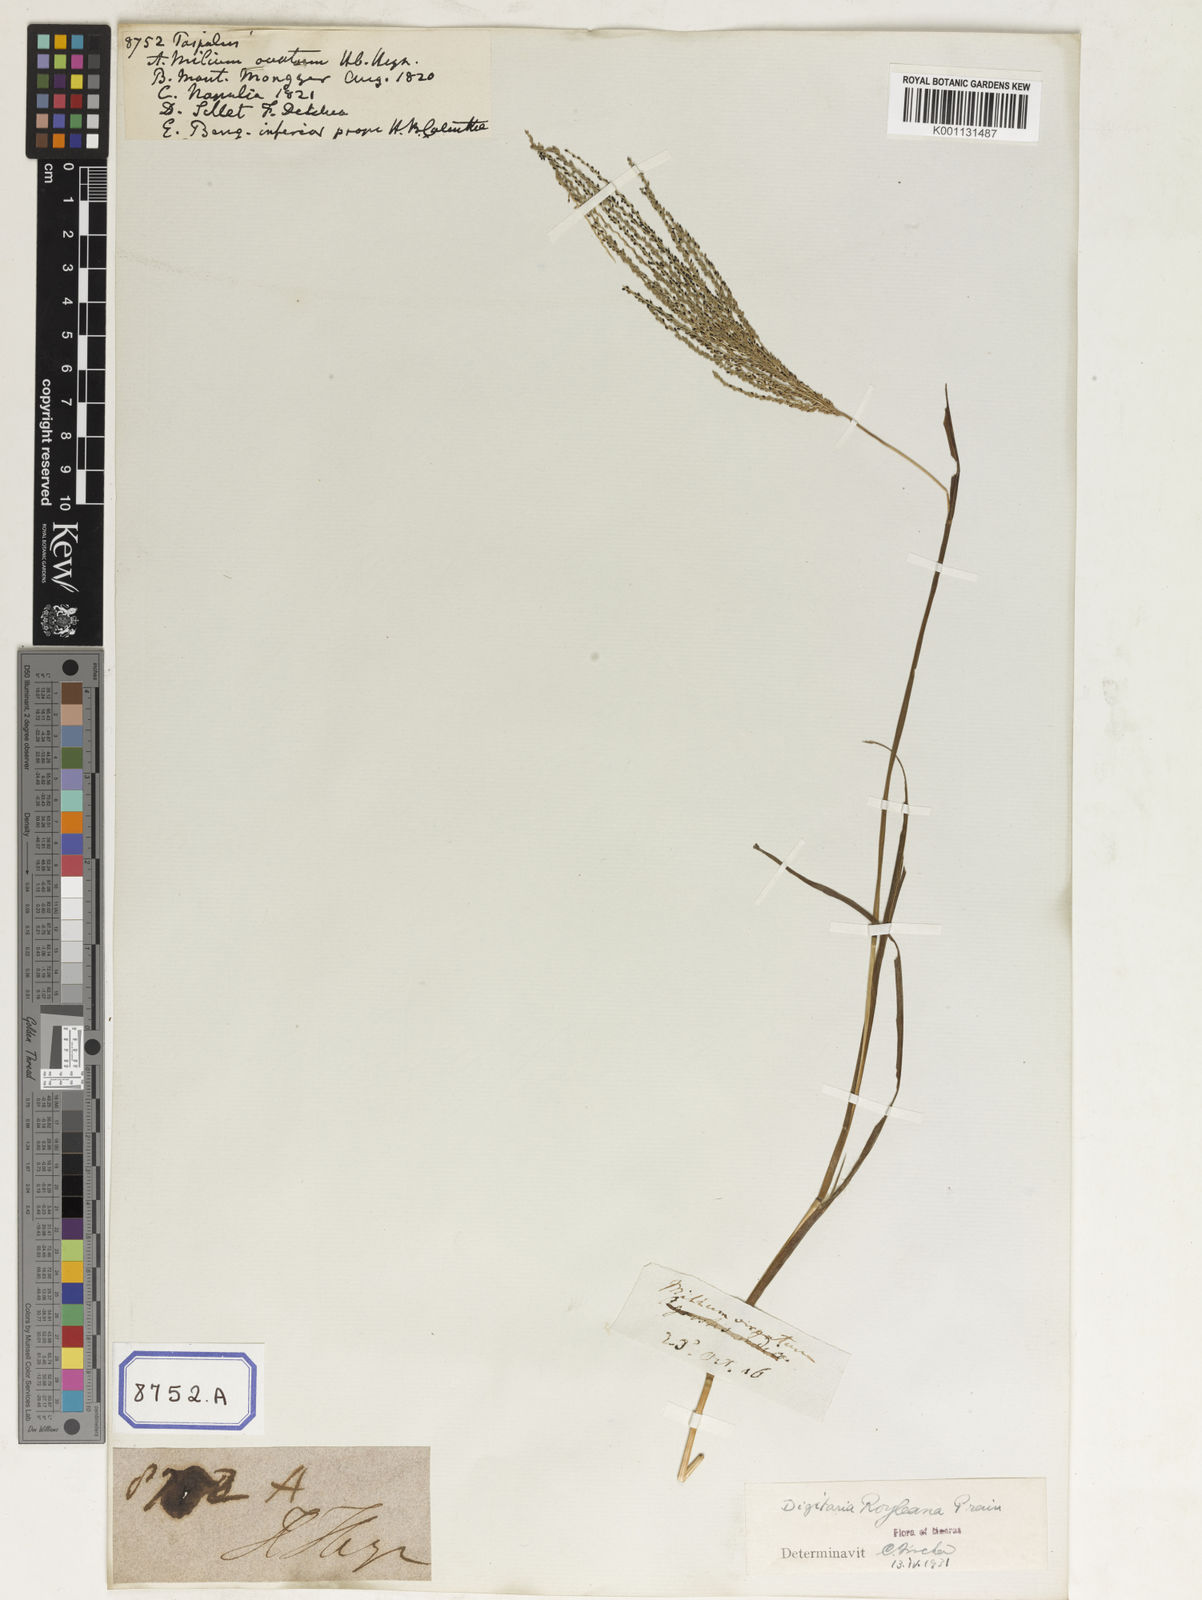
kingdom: Plantae
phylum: Tracheophyta
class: Liliopsida
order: Poales
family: Poaceae
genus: Paspalum
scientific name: Paspalum
